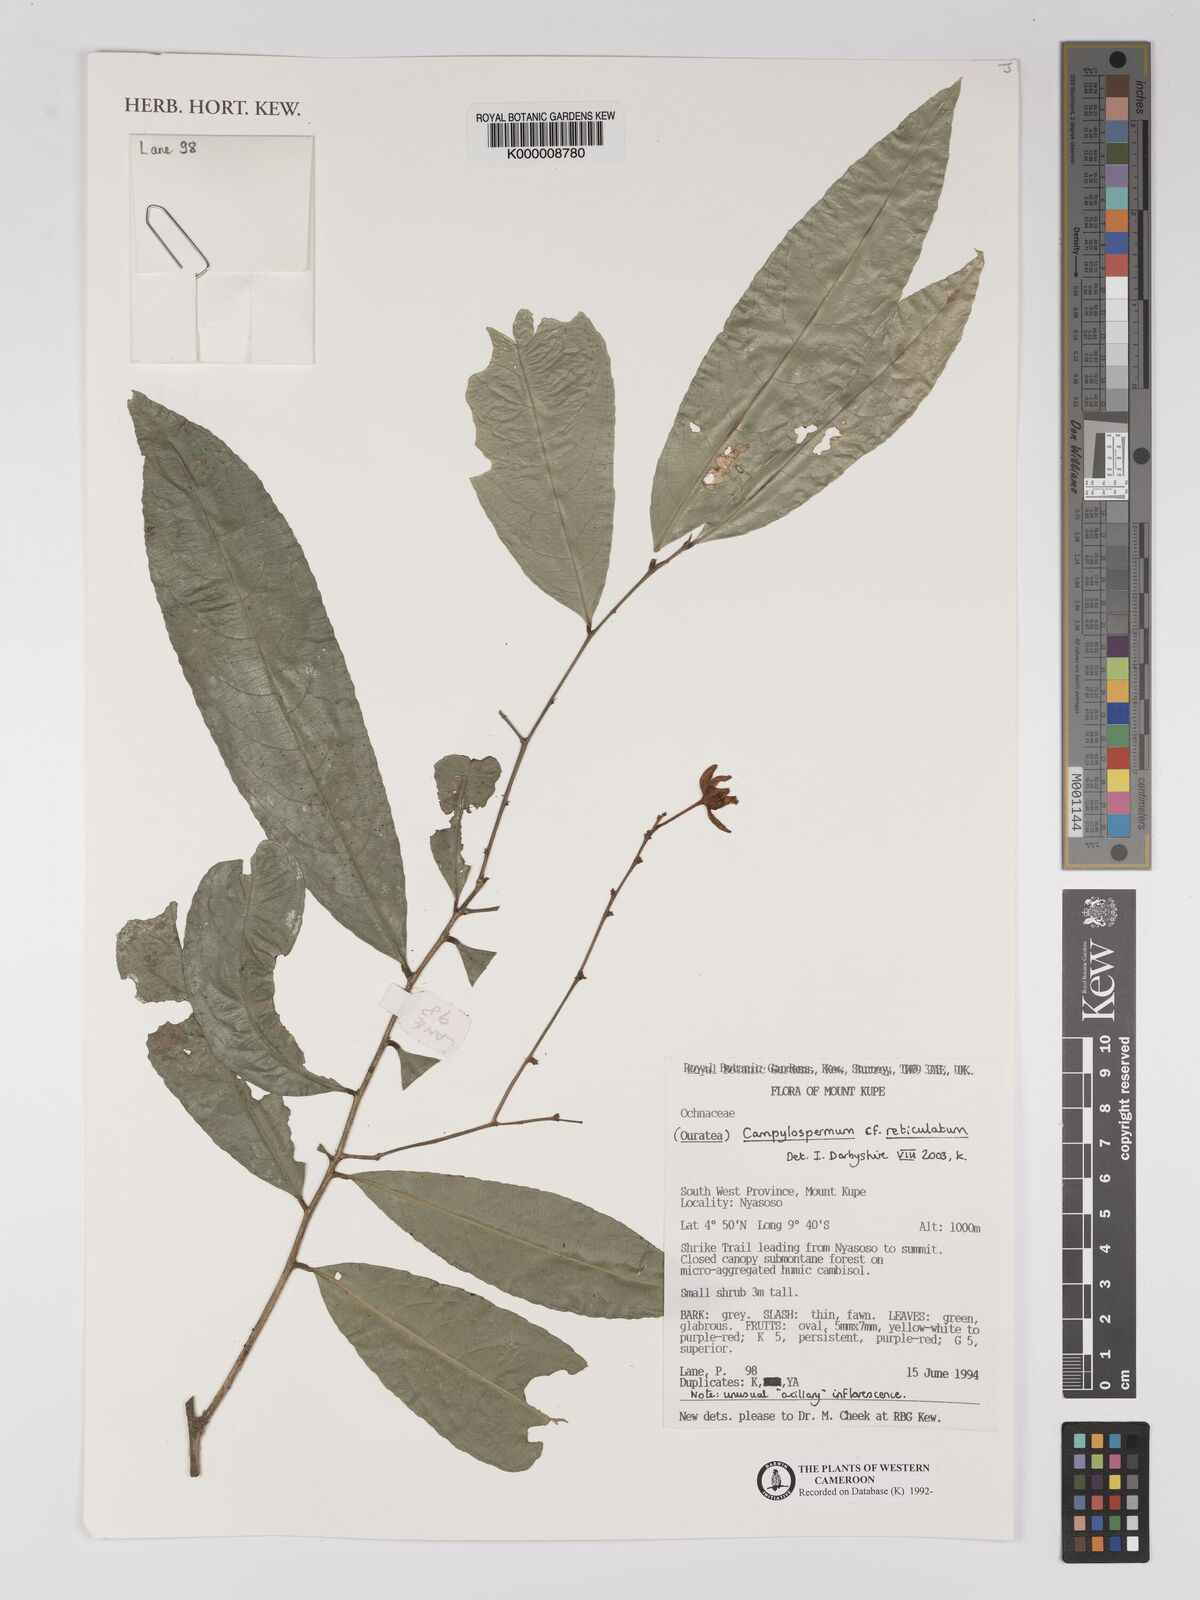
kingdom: Plantae
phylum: Tracheophyta
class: Magnoliopsida
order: Malpighiales
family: Ochnaceae
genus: Campylospermum
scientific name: Campylospermum reticulatum
